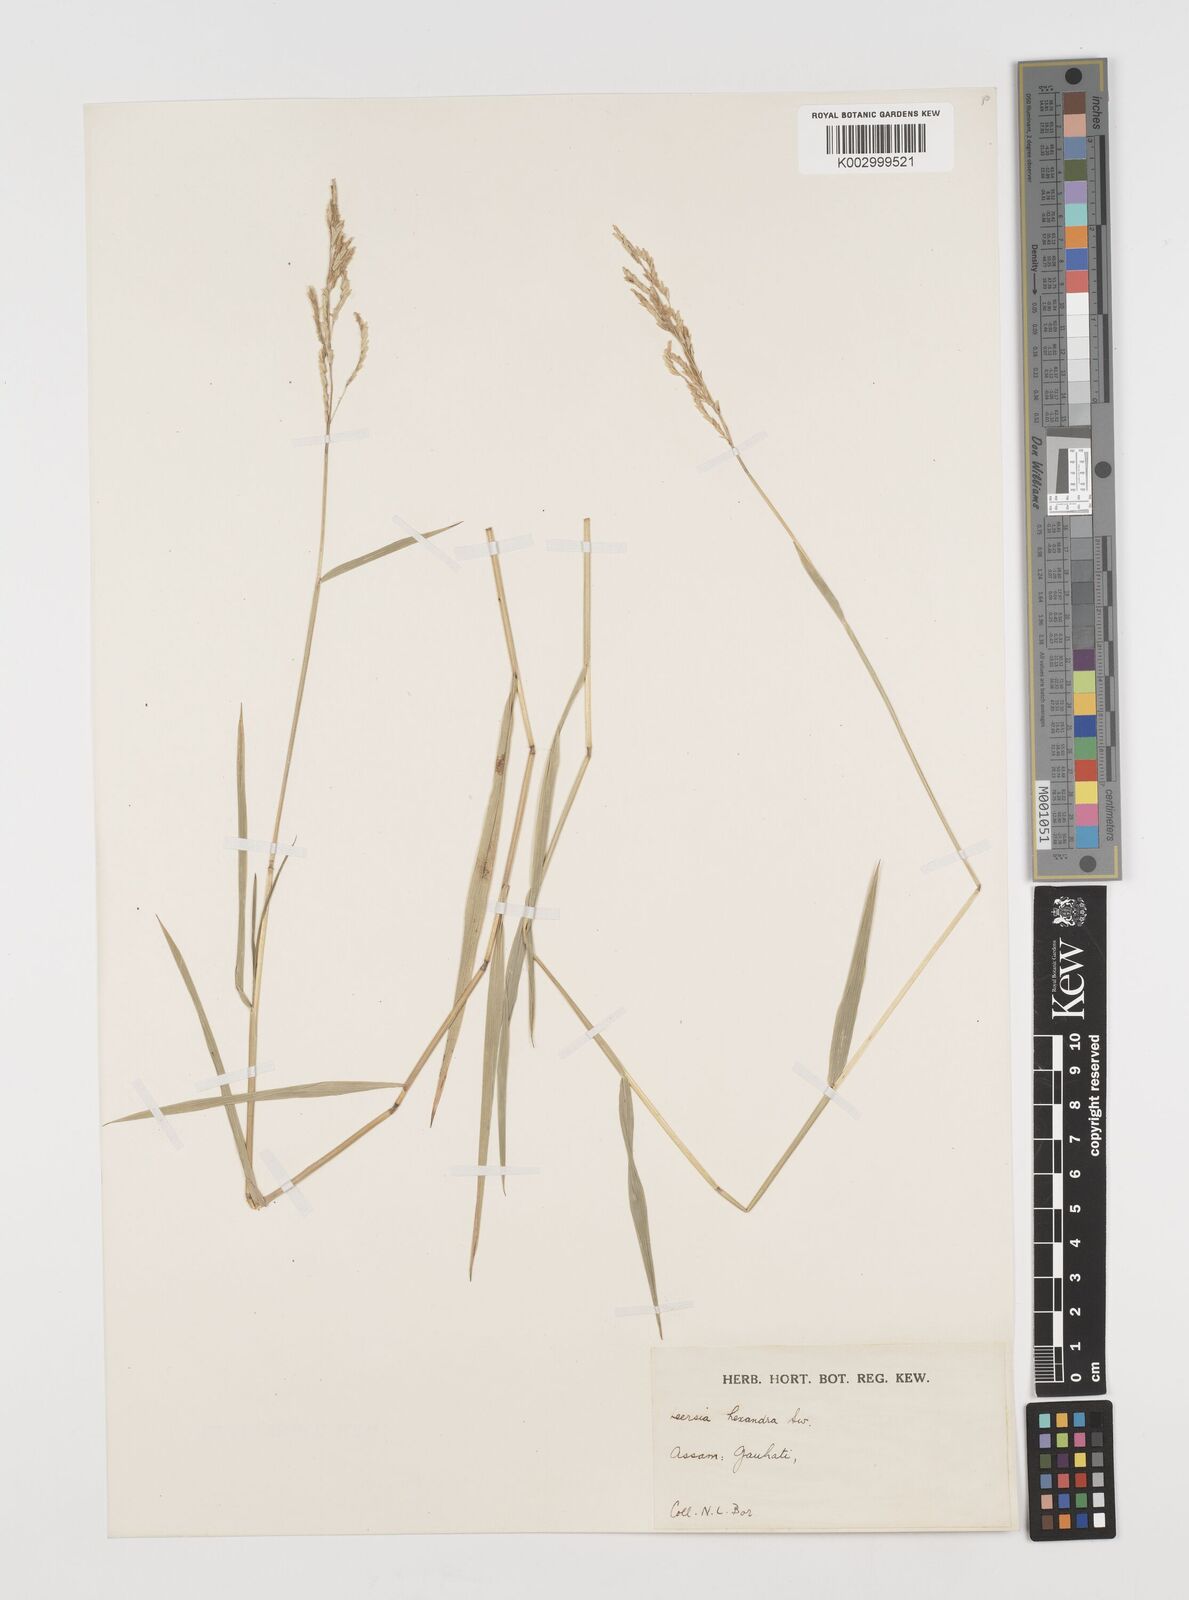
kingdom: Plantae
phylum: Tracheophyta
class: Liliopsida
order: Poales
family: Poaceae
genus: Leersia
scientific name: Leersia hexandra
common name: Southern cut grass
